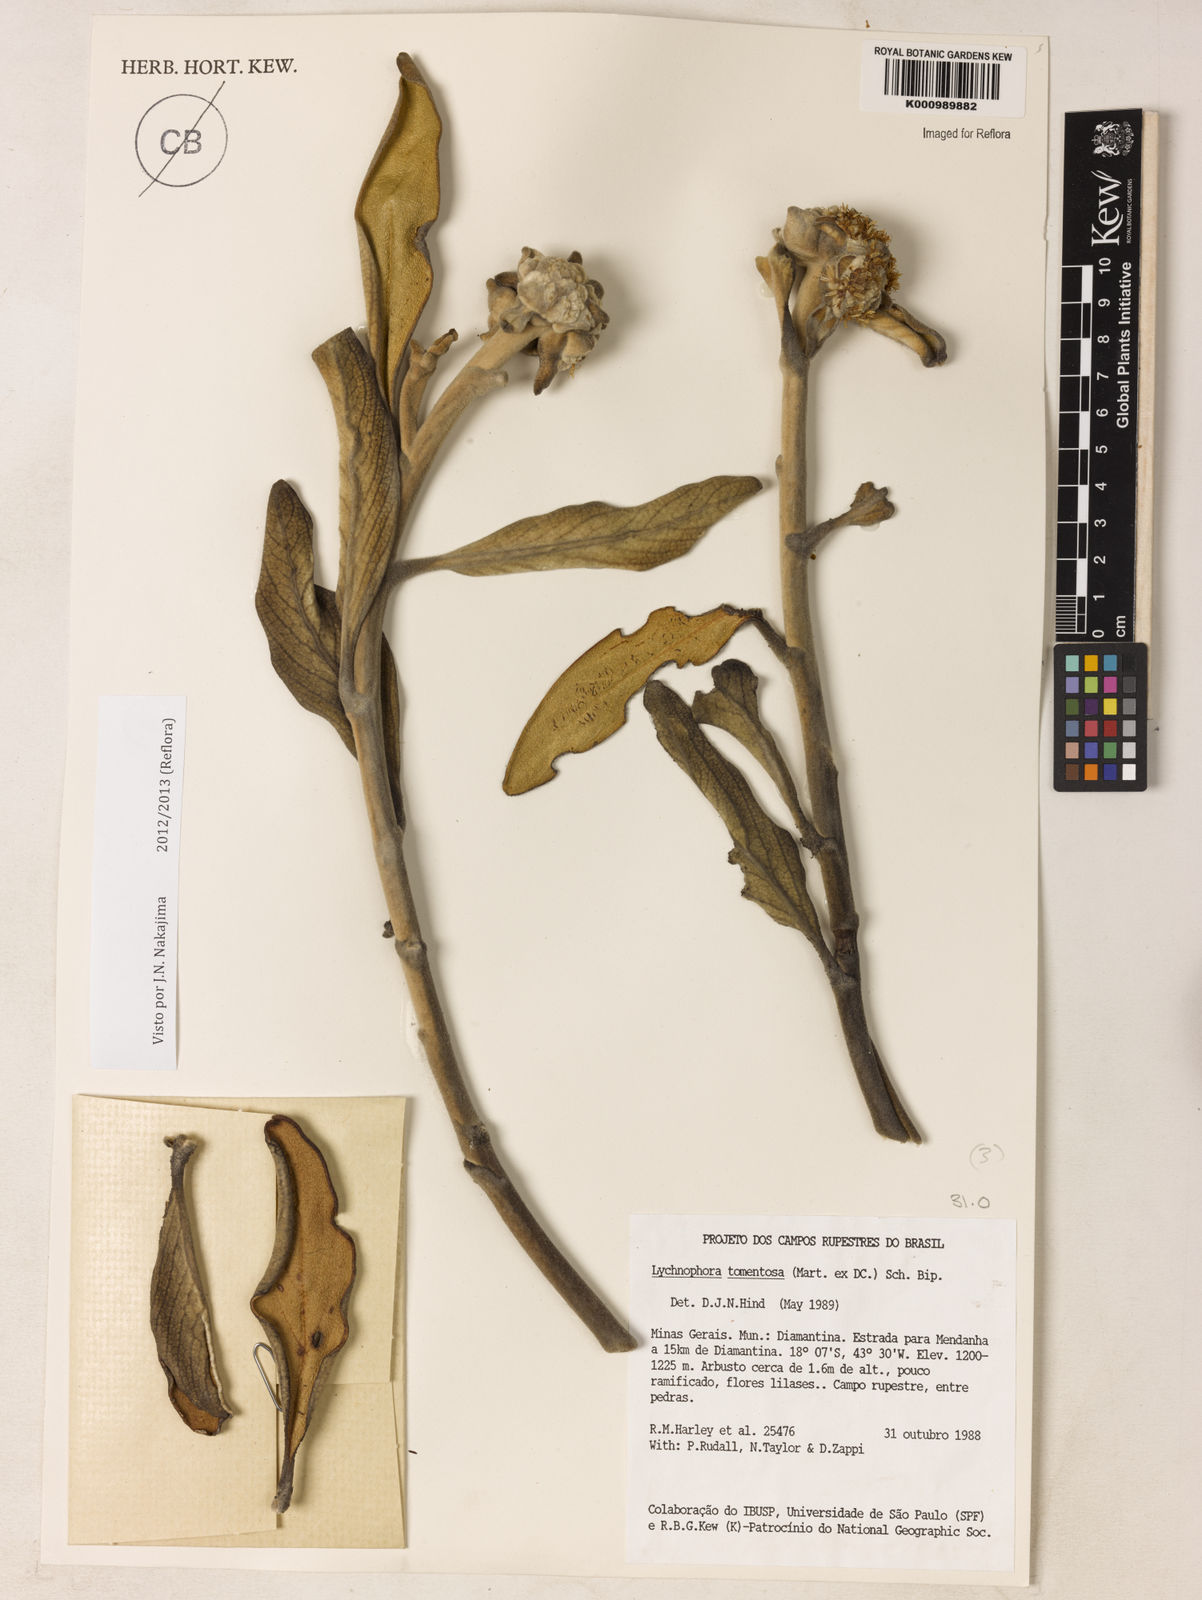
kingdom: Plantae
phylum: Tracheophyta
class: Magnoliopsida
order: Asterales
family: Asteraceae
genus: Lychnocephalus
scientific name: Lychnocephalus tomentosus
